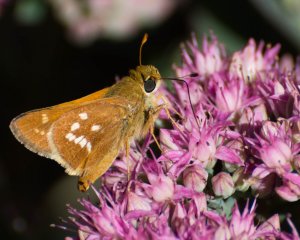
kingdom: Animalia
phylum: Arthropoda
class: Insecta
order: Lepidoptera
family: Hesperiidae
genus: Hesperia
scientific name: Hesperia leonardus
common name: Leonard's Skipper
